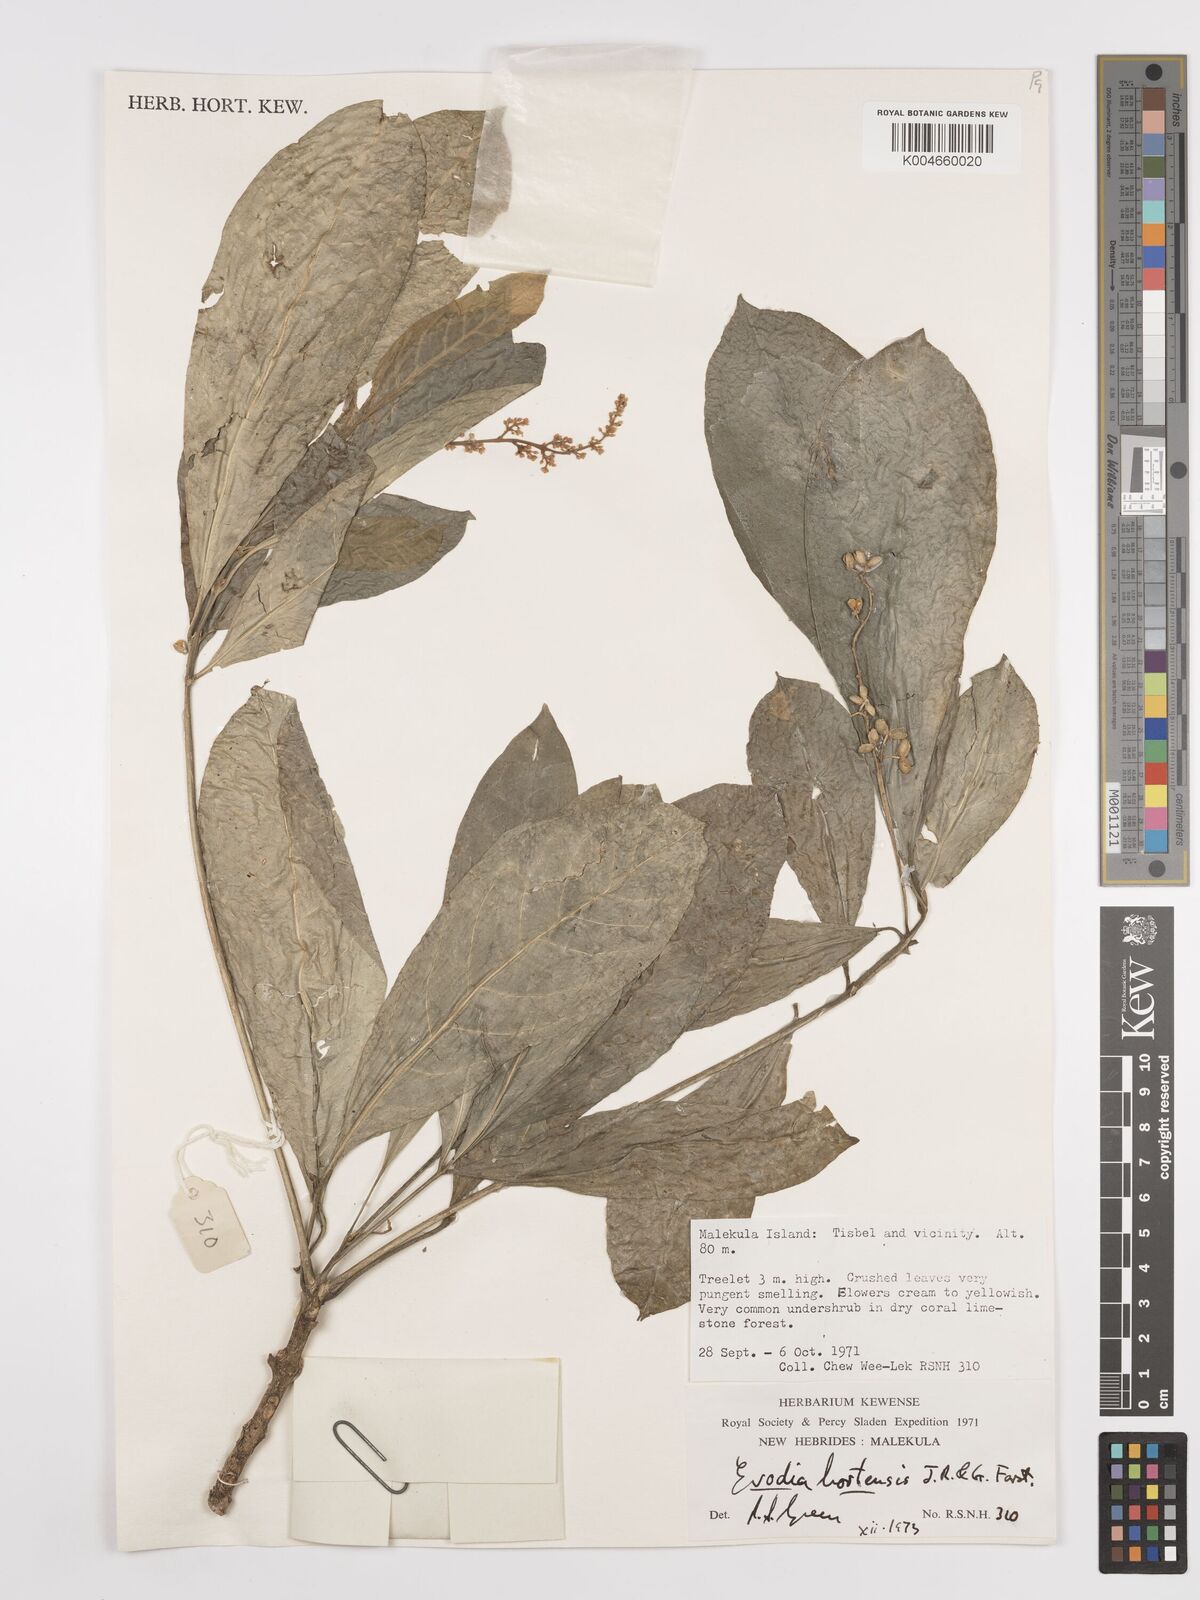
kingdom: Plantae
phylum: Tracheophyta
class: Magnoliopsida
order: Sapindales
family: Rutaceae
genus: Euodia
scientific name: Euodia hortensis
